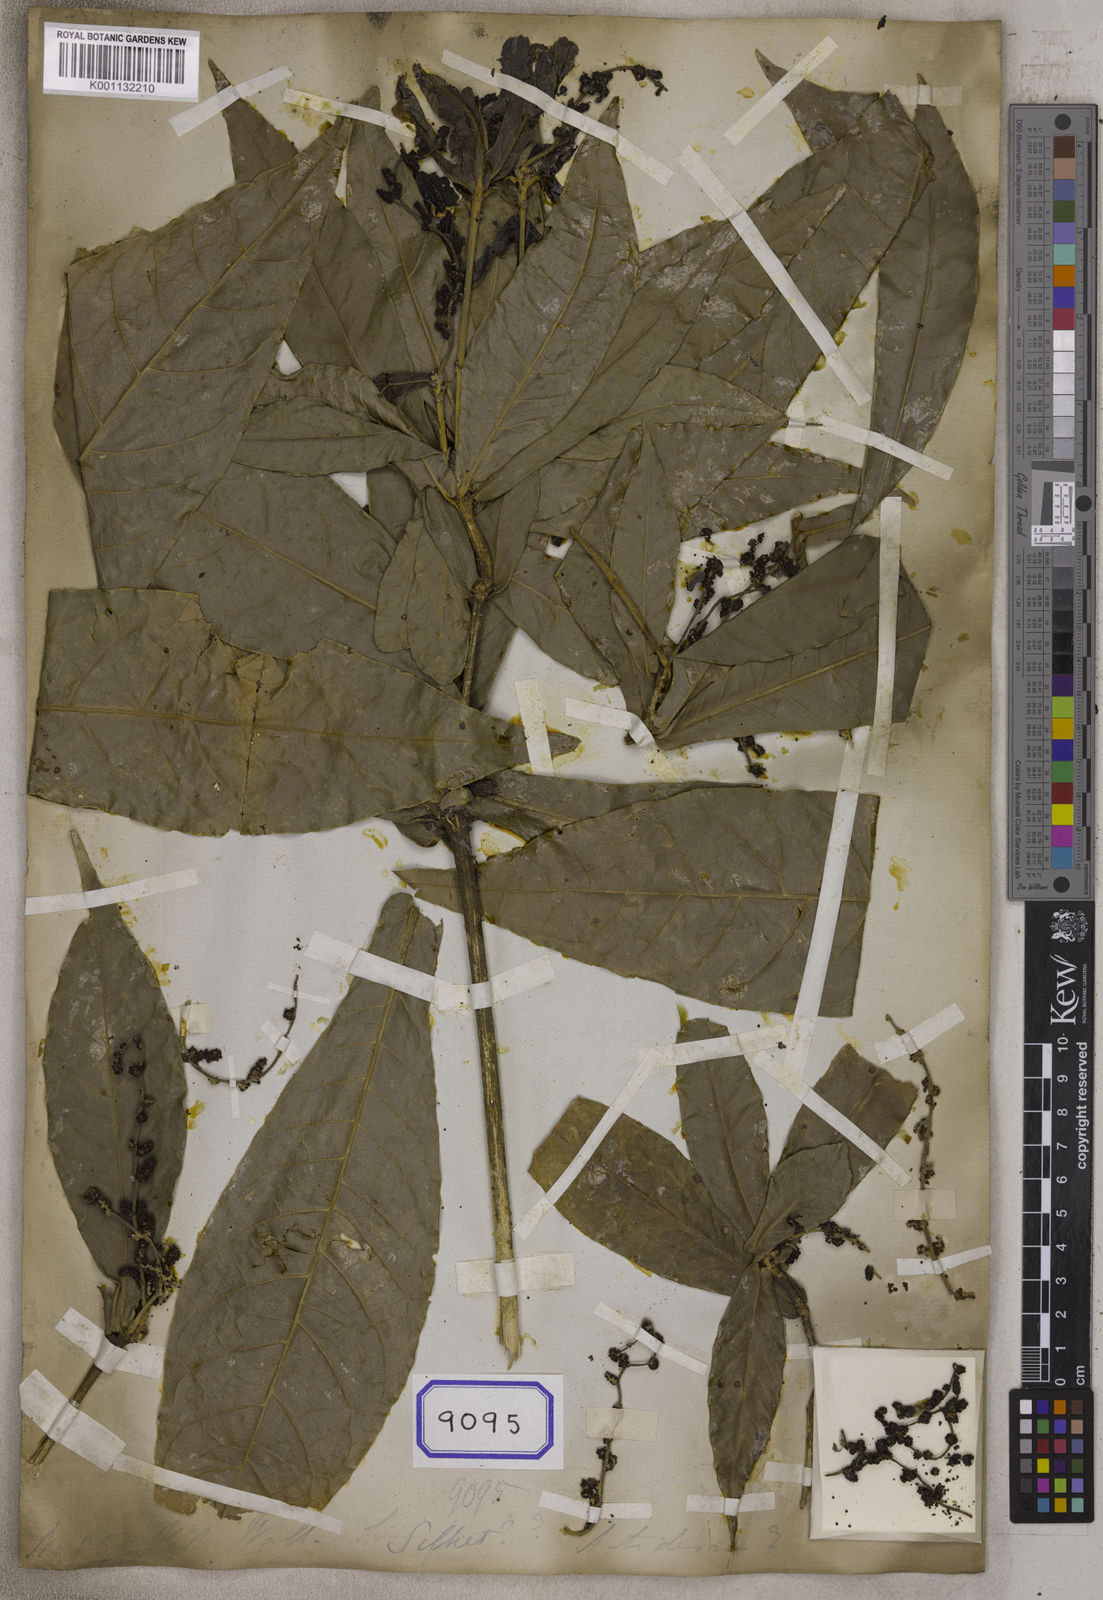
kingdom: Plantae
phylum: Tracheophyta
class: Magnoliopsida
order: Malpighiales
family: Euphorbiaceae
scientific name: Euphorbiaceae
